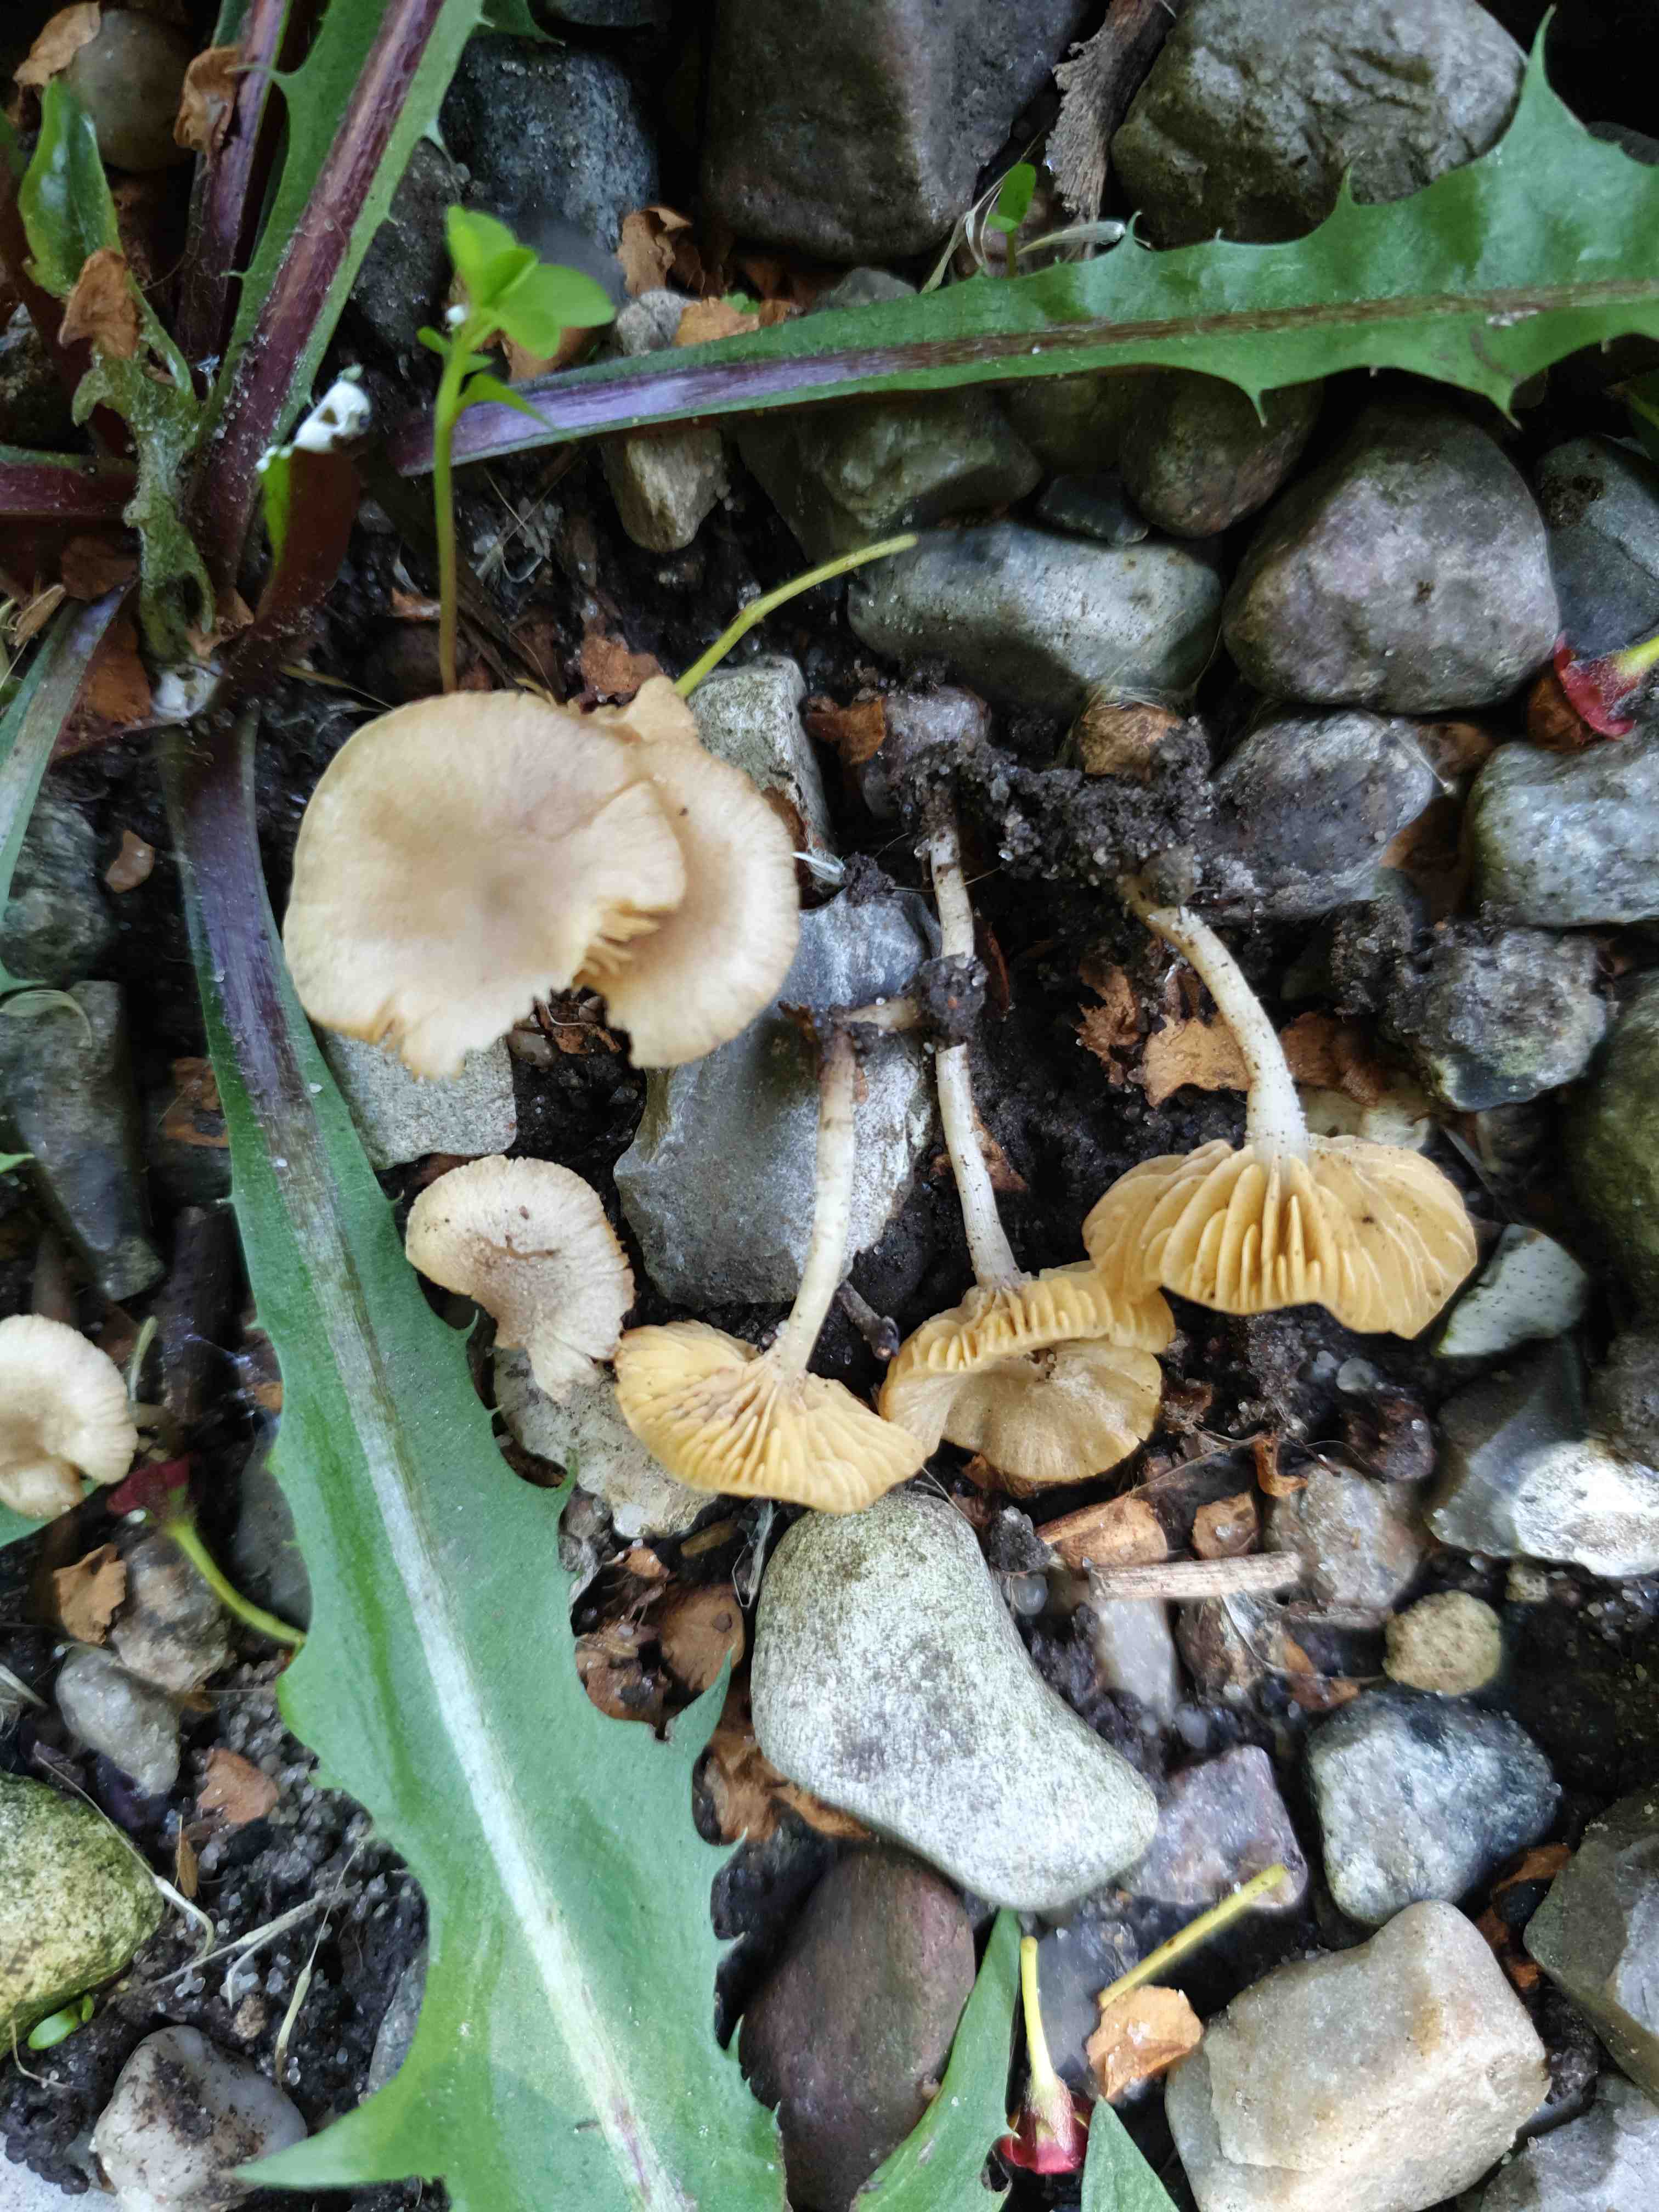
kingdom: Fungi
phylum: Basidiomycota
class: Agaricomycetes
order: Agaricales
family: Tubariaceae
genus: Tubaria
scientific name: Tubaria dispersa
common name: tjørne-fnughat
